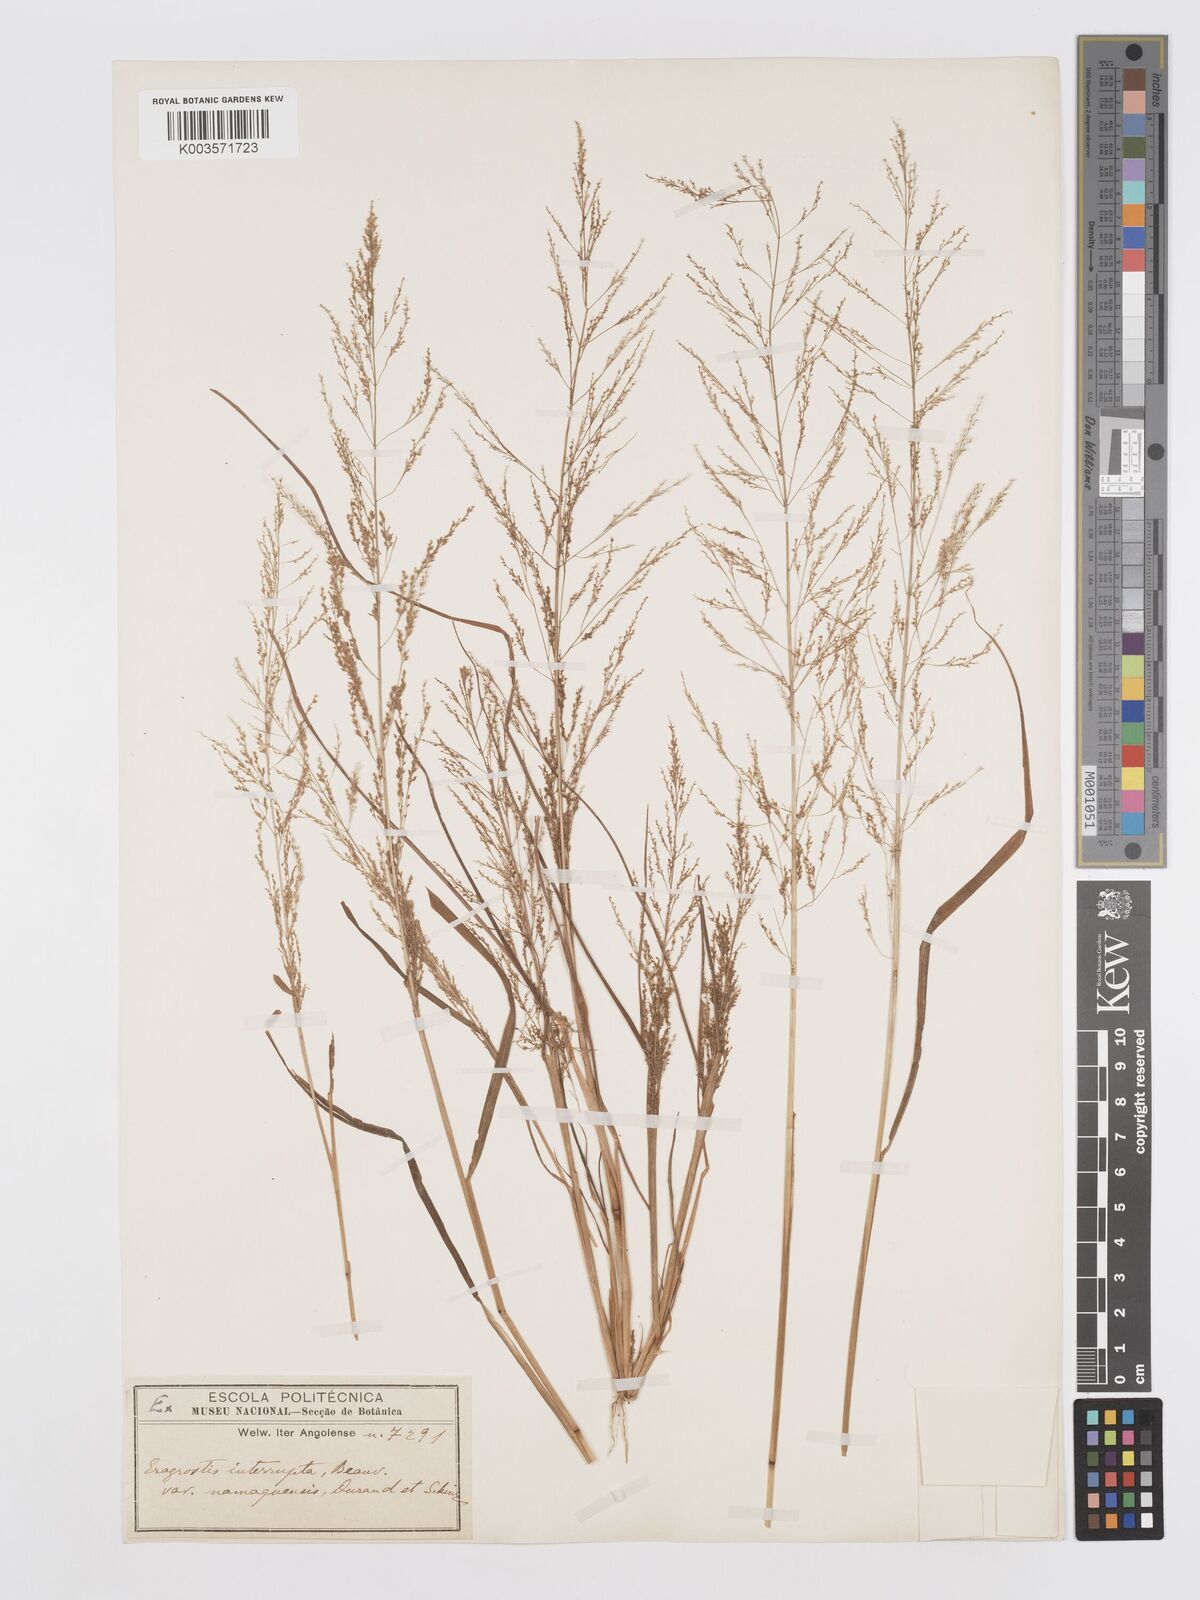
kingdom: Plantae
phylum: Tracheophyta
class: Liliopsida
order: Poales
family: Poaceae
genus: Eragrostis
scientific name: Eragrostis japonica
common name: Pond lovegrass
